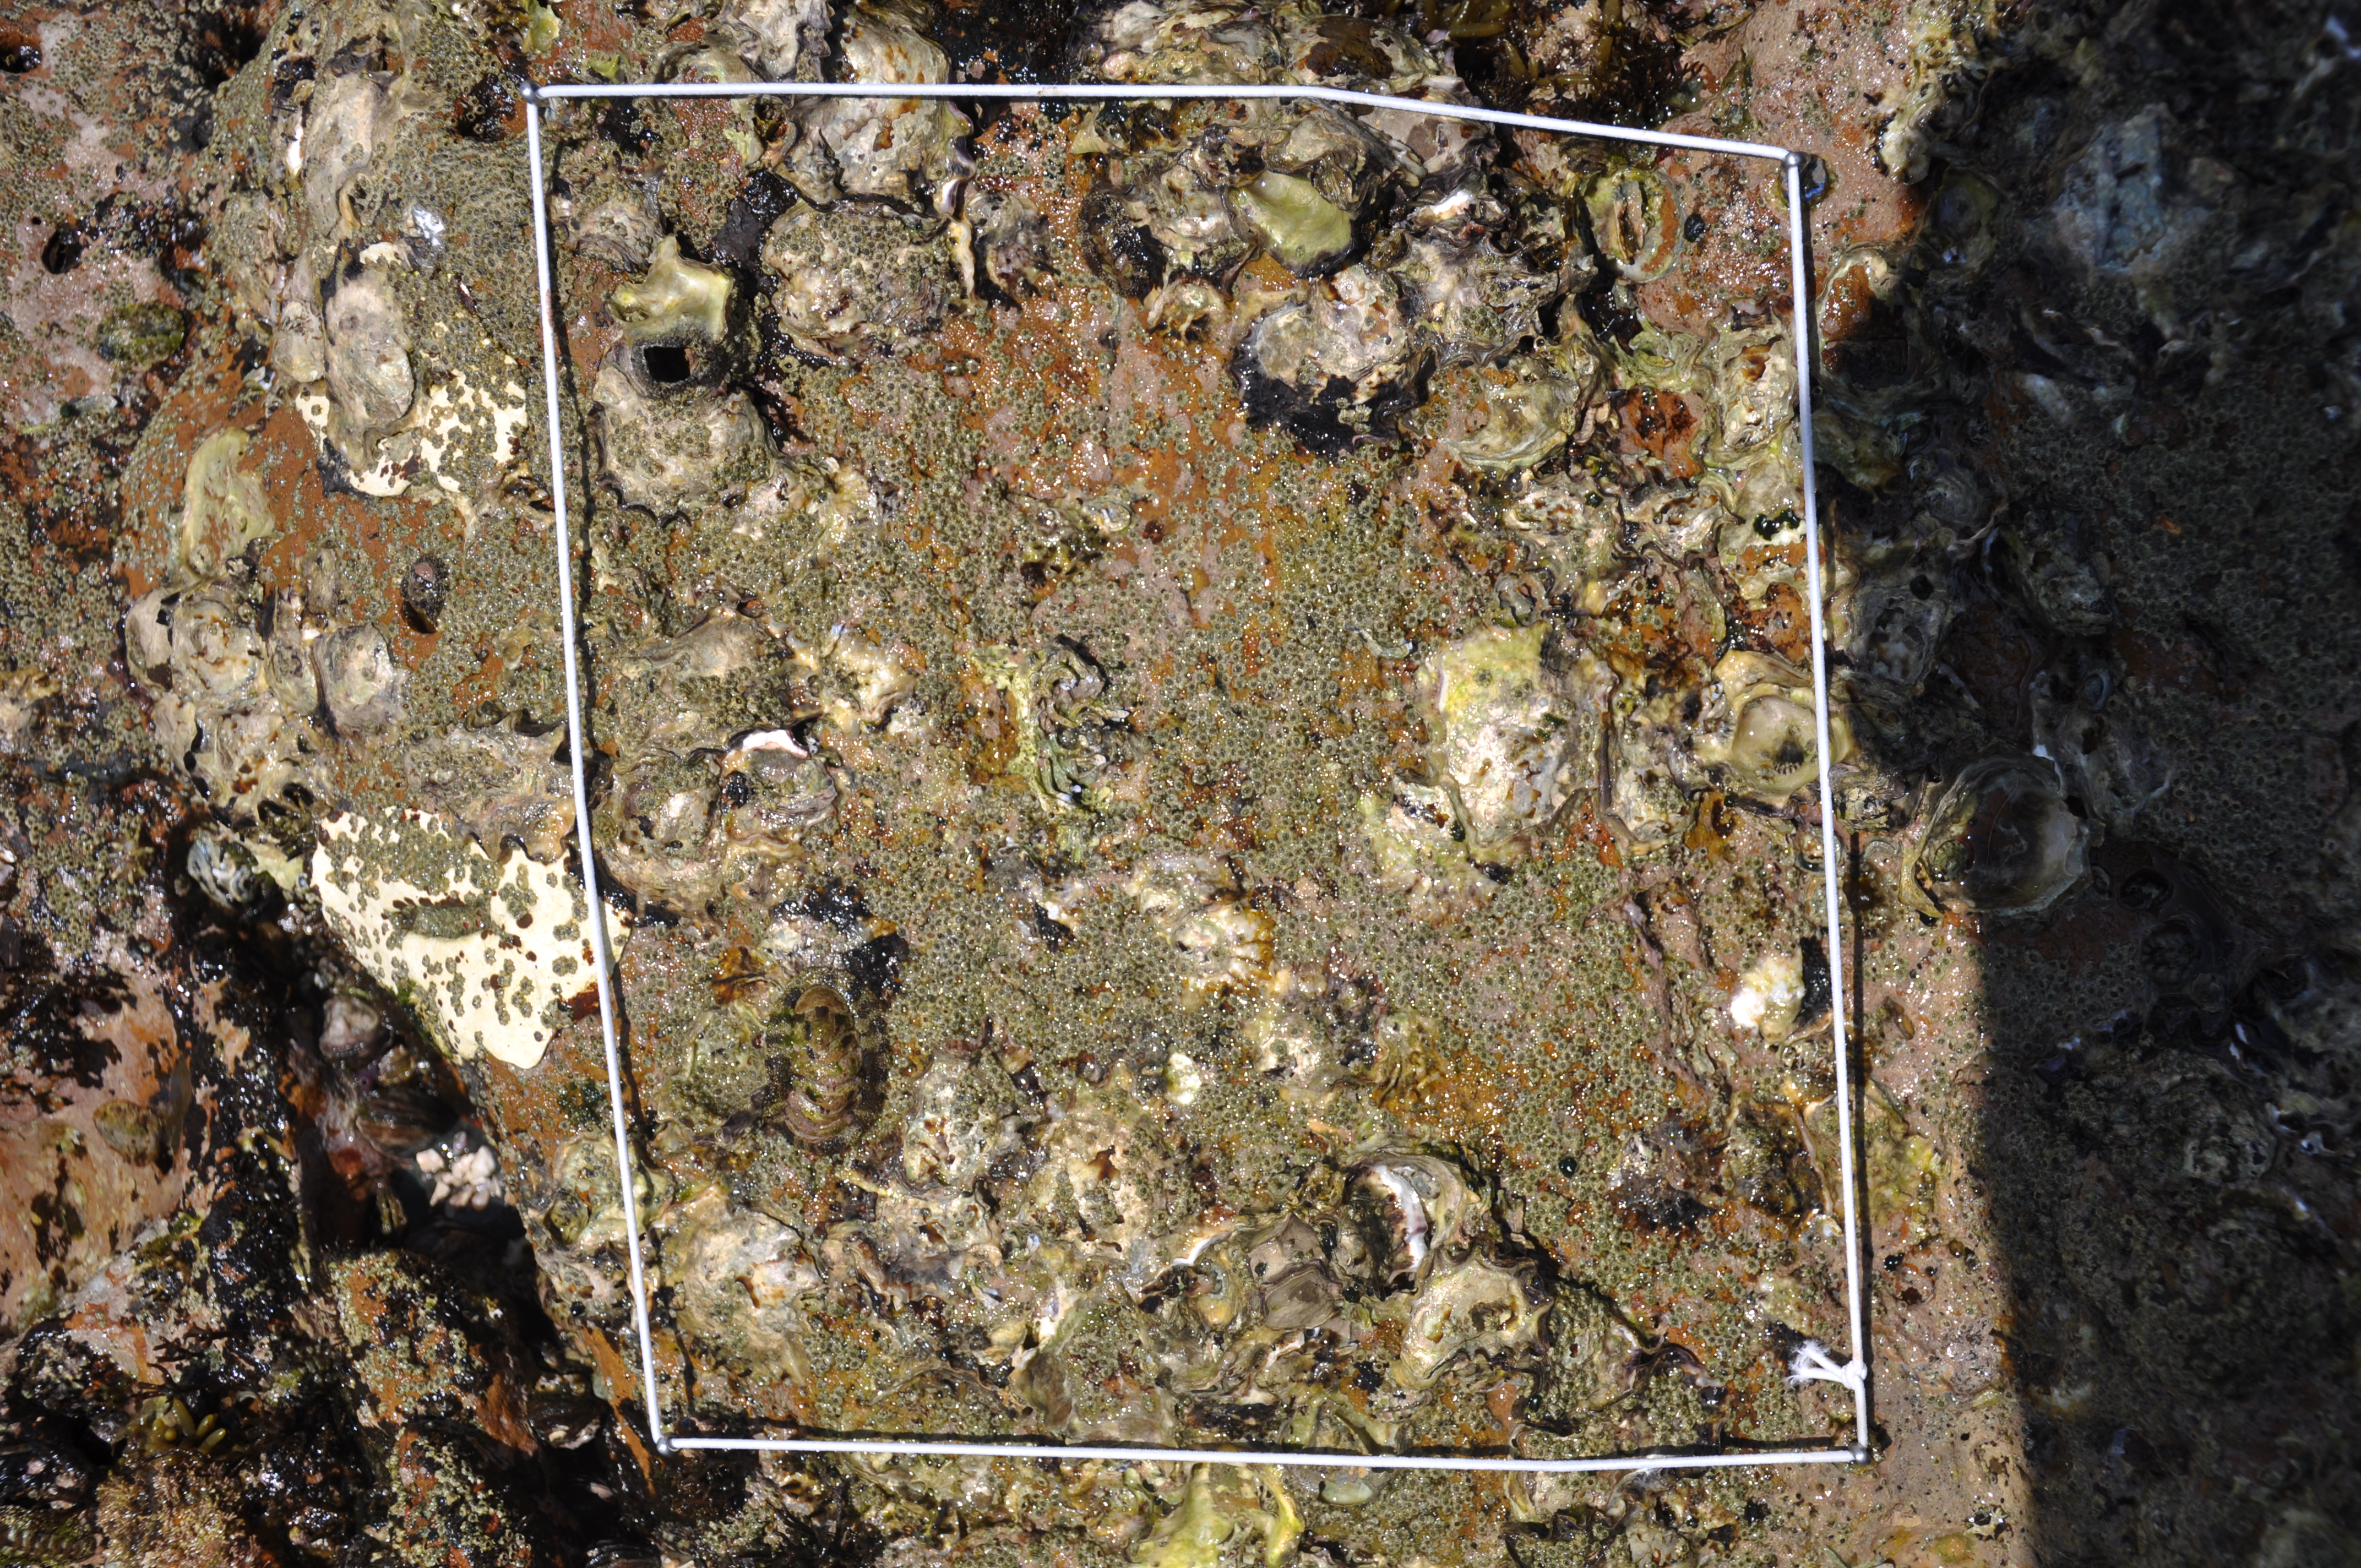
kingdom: Animalia
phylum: Arthropoda
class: Maxillopoda
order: Sessilia
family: Chthamalidae
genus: Chthamalus
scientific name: Chthamalus challengeri
